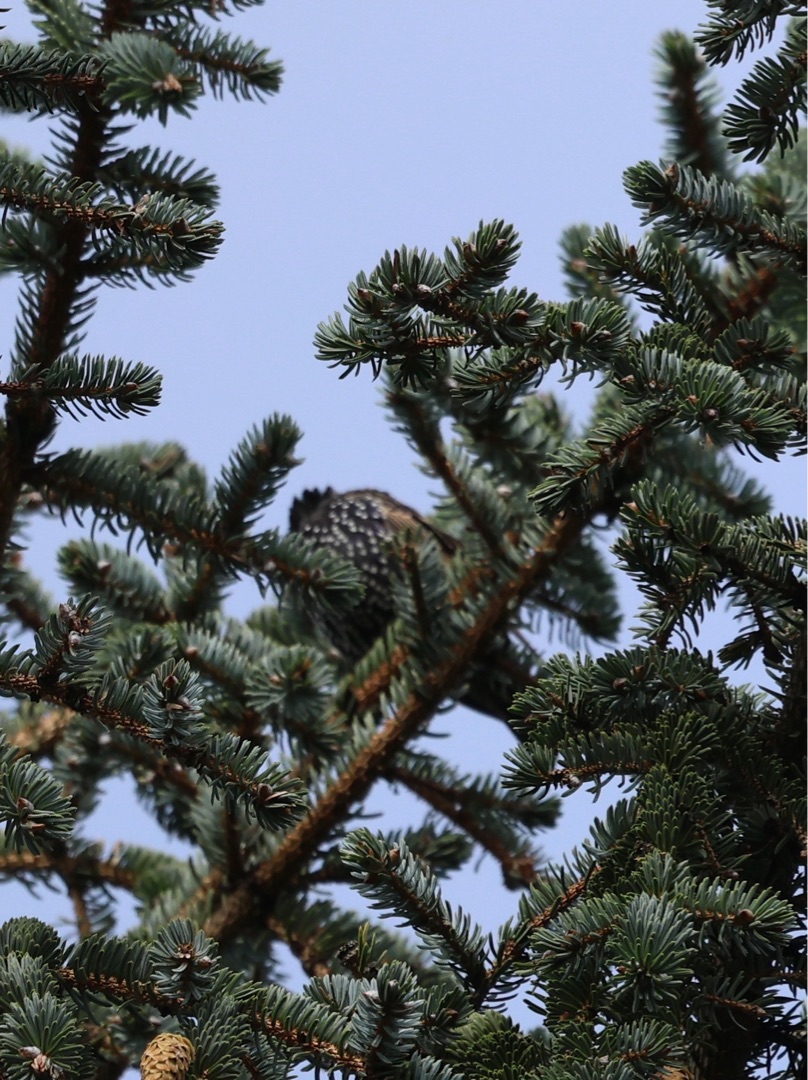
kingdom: Animalia
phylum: Chordata
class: Aves
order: Passeriformes
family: Sturnidae
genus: Sturnus
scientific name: Sturnus vulgaris
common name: Stær
